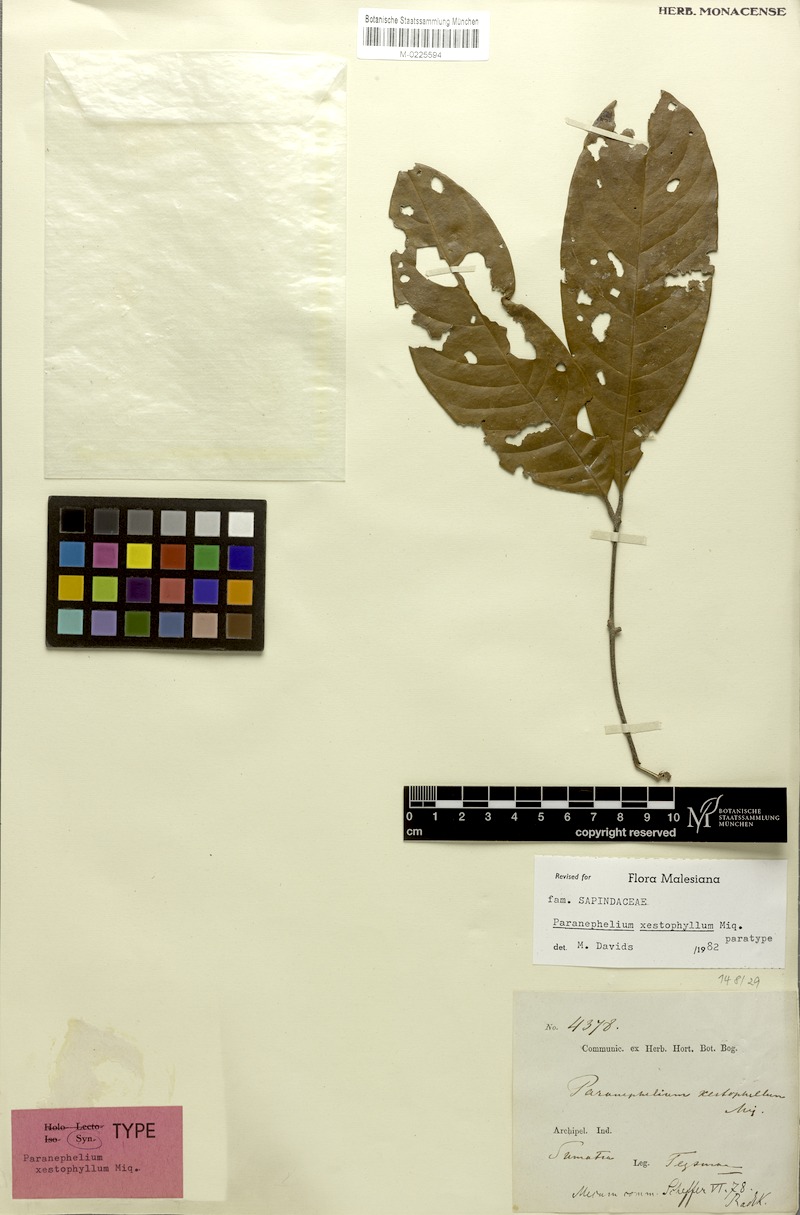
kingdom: Plantae
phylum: Tracheophyta
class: Magnoliopsida
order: Sapindales
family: Sapindaceae
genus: Paranephelium
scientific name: Paranephelium xestophyllum
